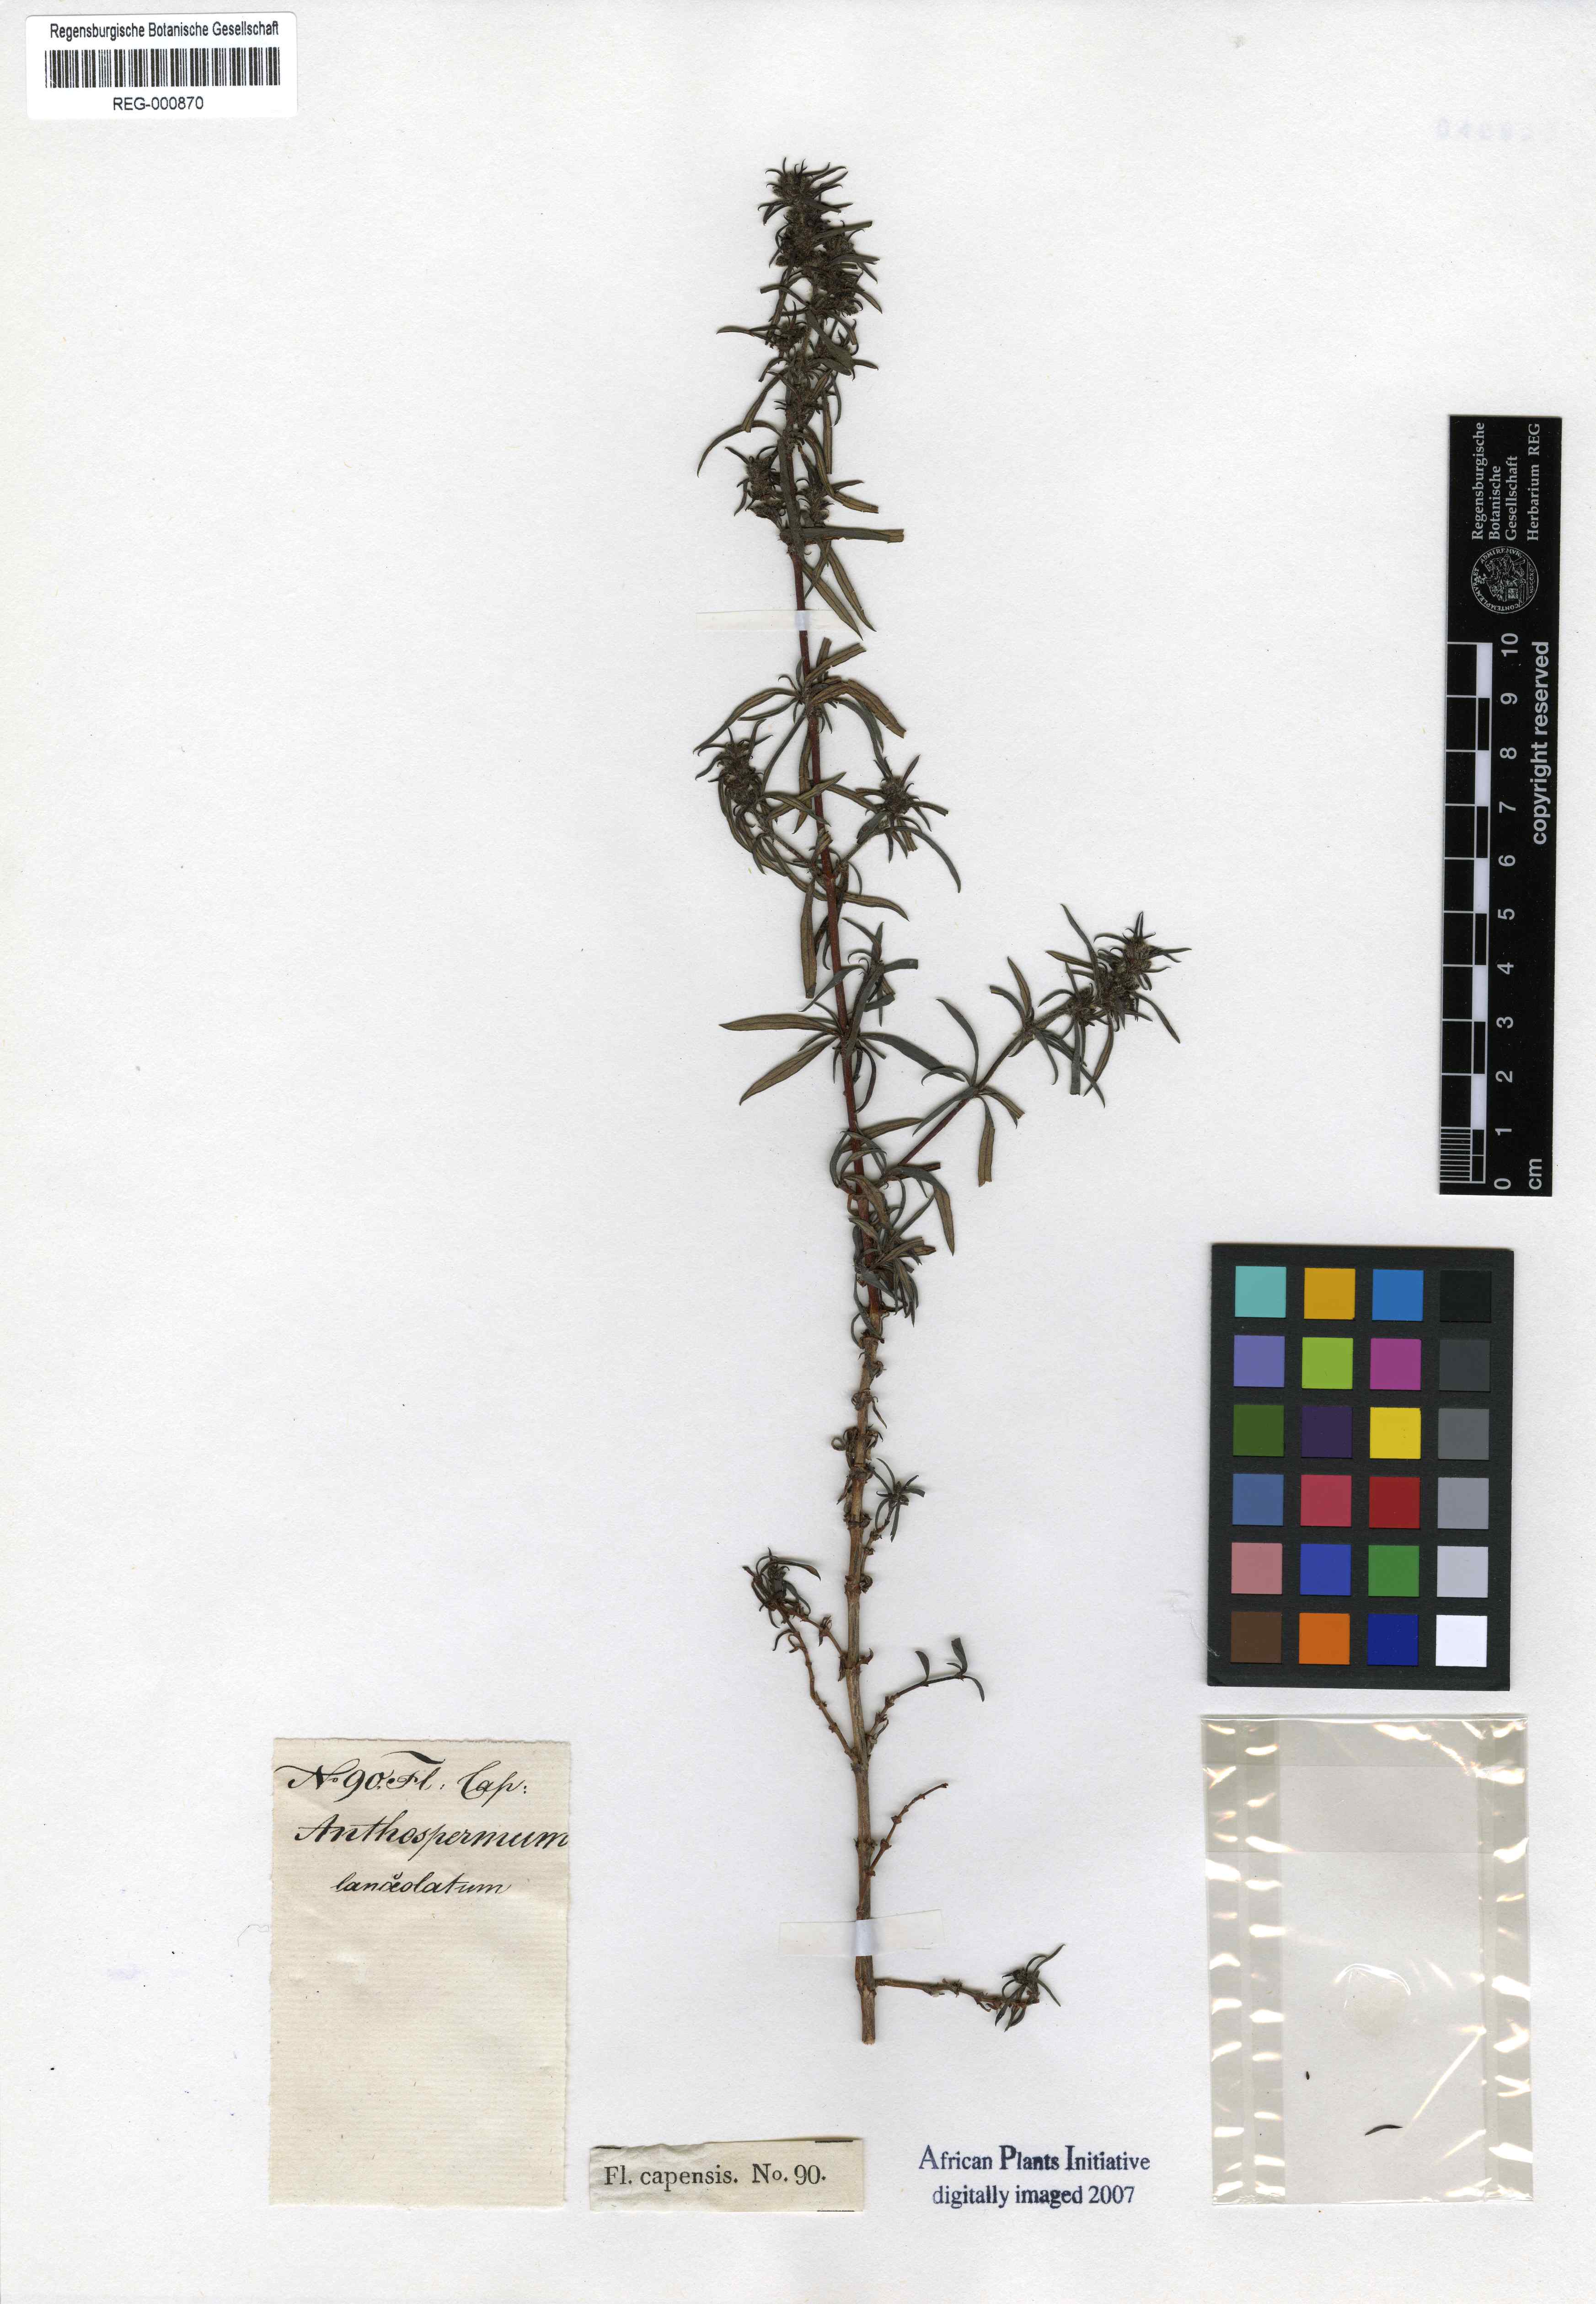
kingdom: Plantae
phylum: Tracheophyta
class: Magnoliopsida
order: Gentianales
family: Rubiaceae
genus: Anthospermum
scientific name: Anthospermum herbaceum
